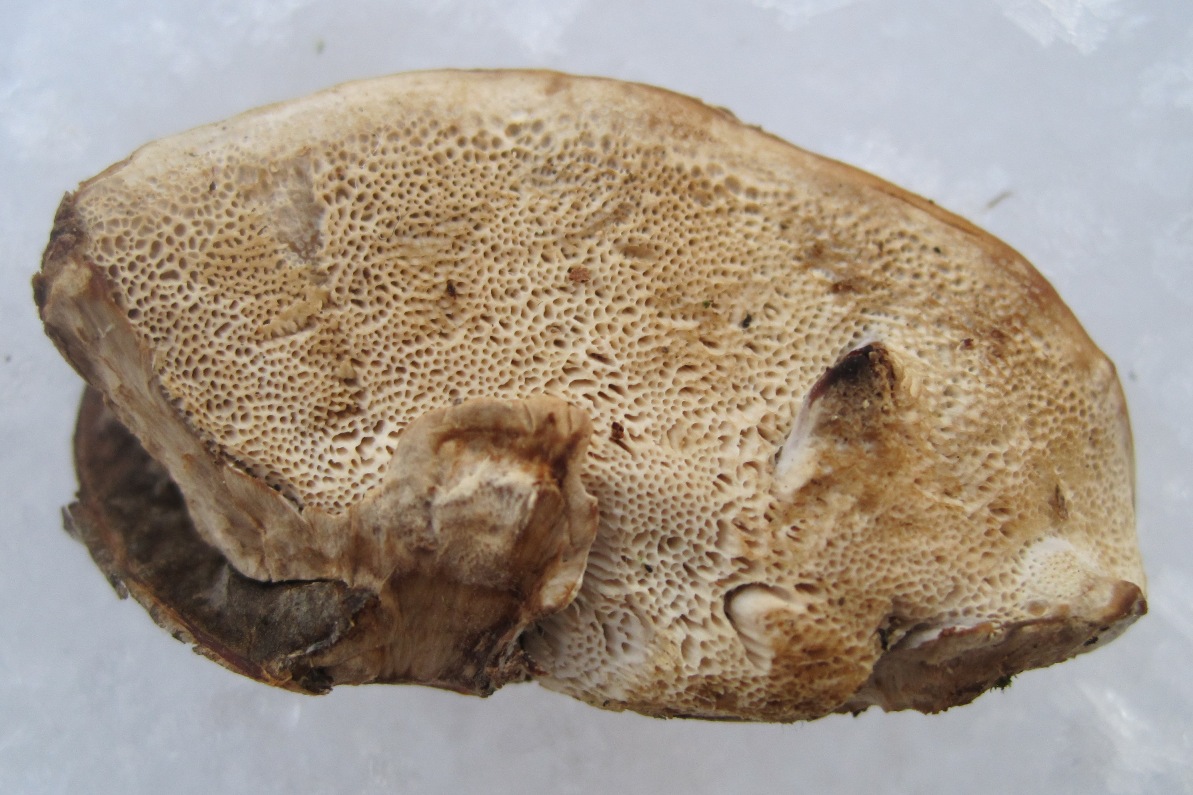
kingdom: Fungi
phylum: Basidiomycota
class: Agaricomycetes
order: Polyporales
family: Phanerochaetaceae
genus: Bjerkandera
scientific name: Bjerkandera fumosa
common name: grågul sodporesvamp
